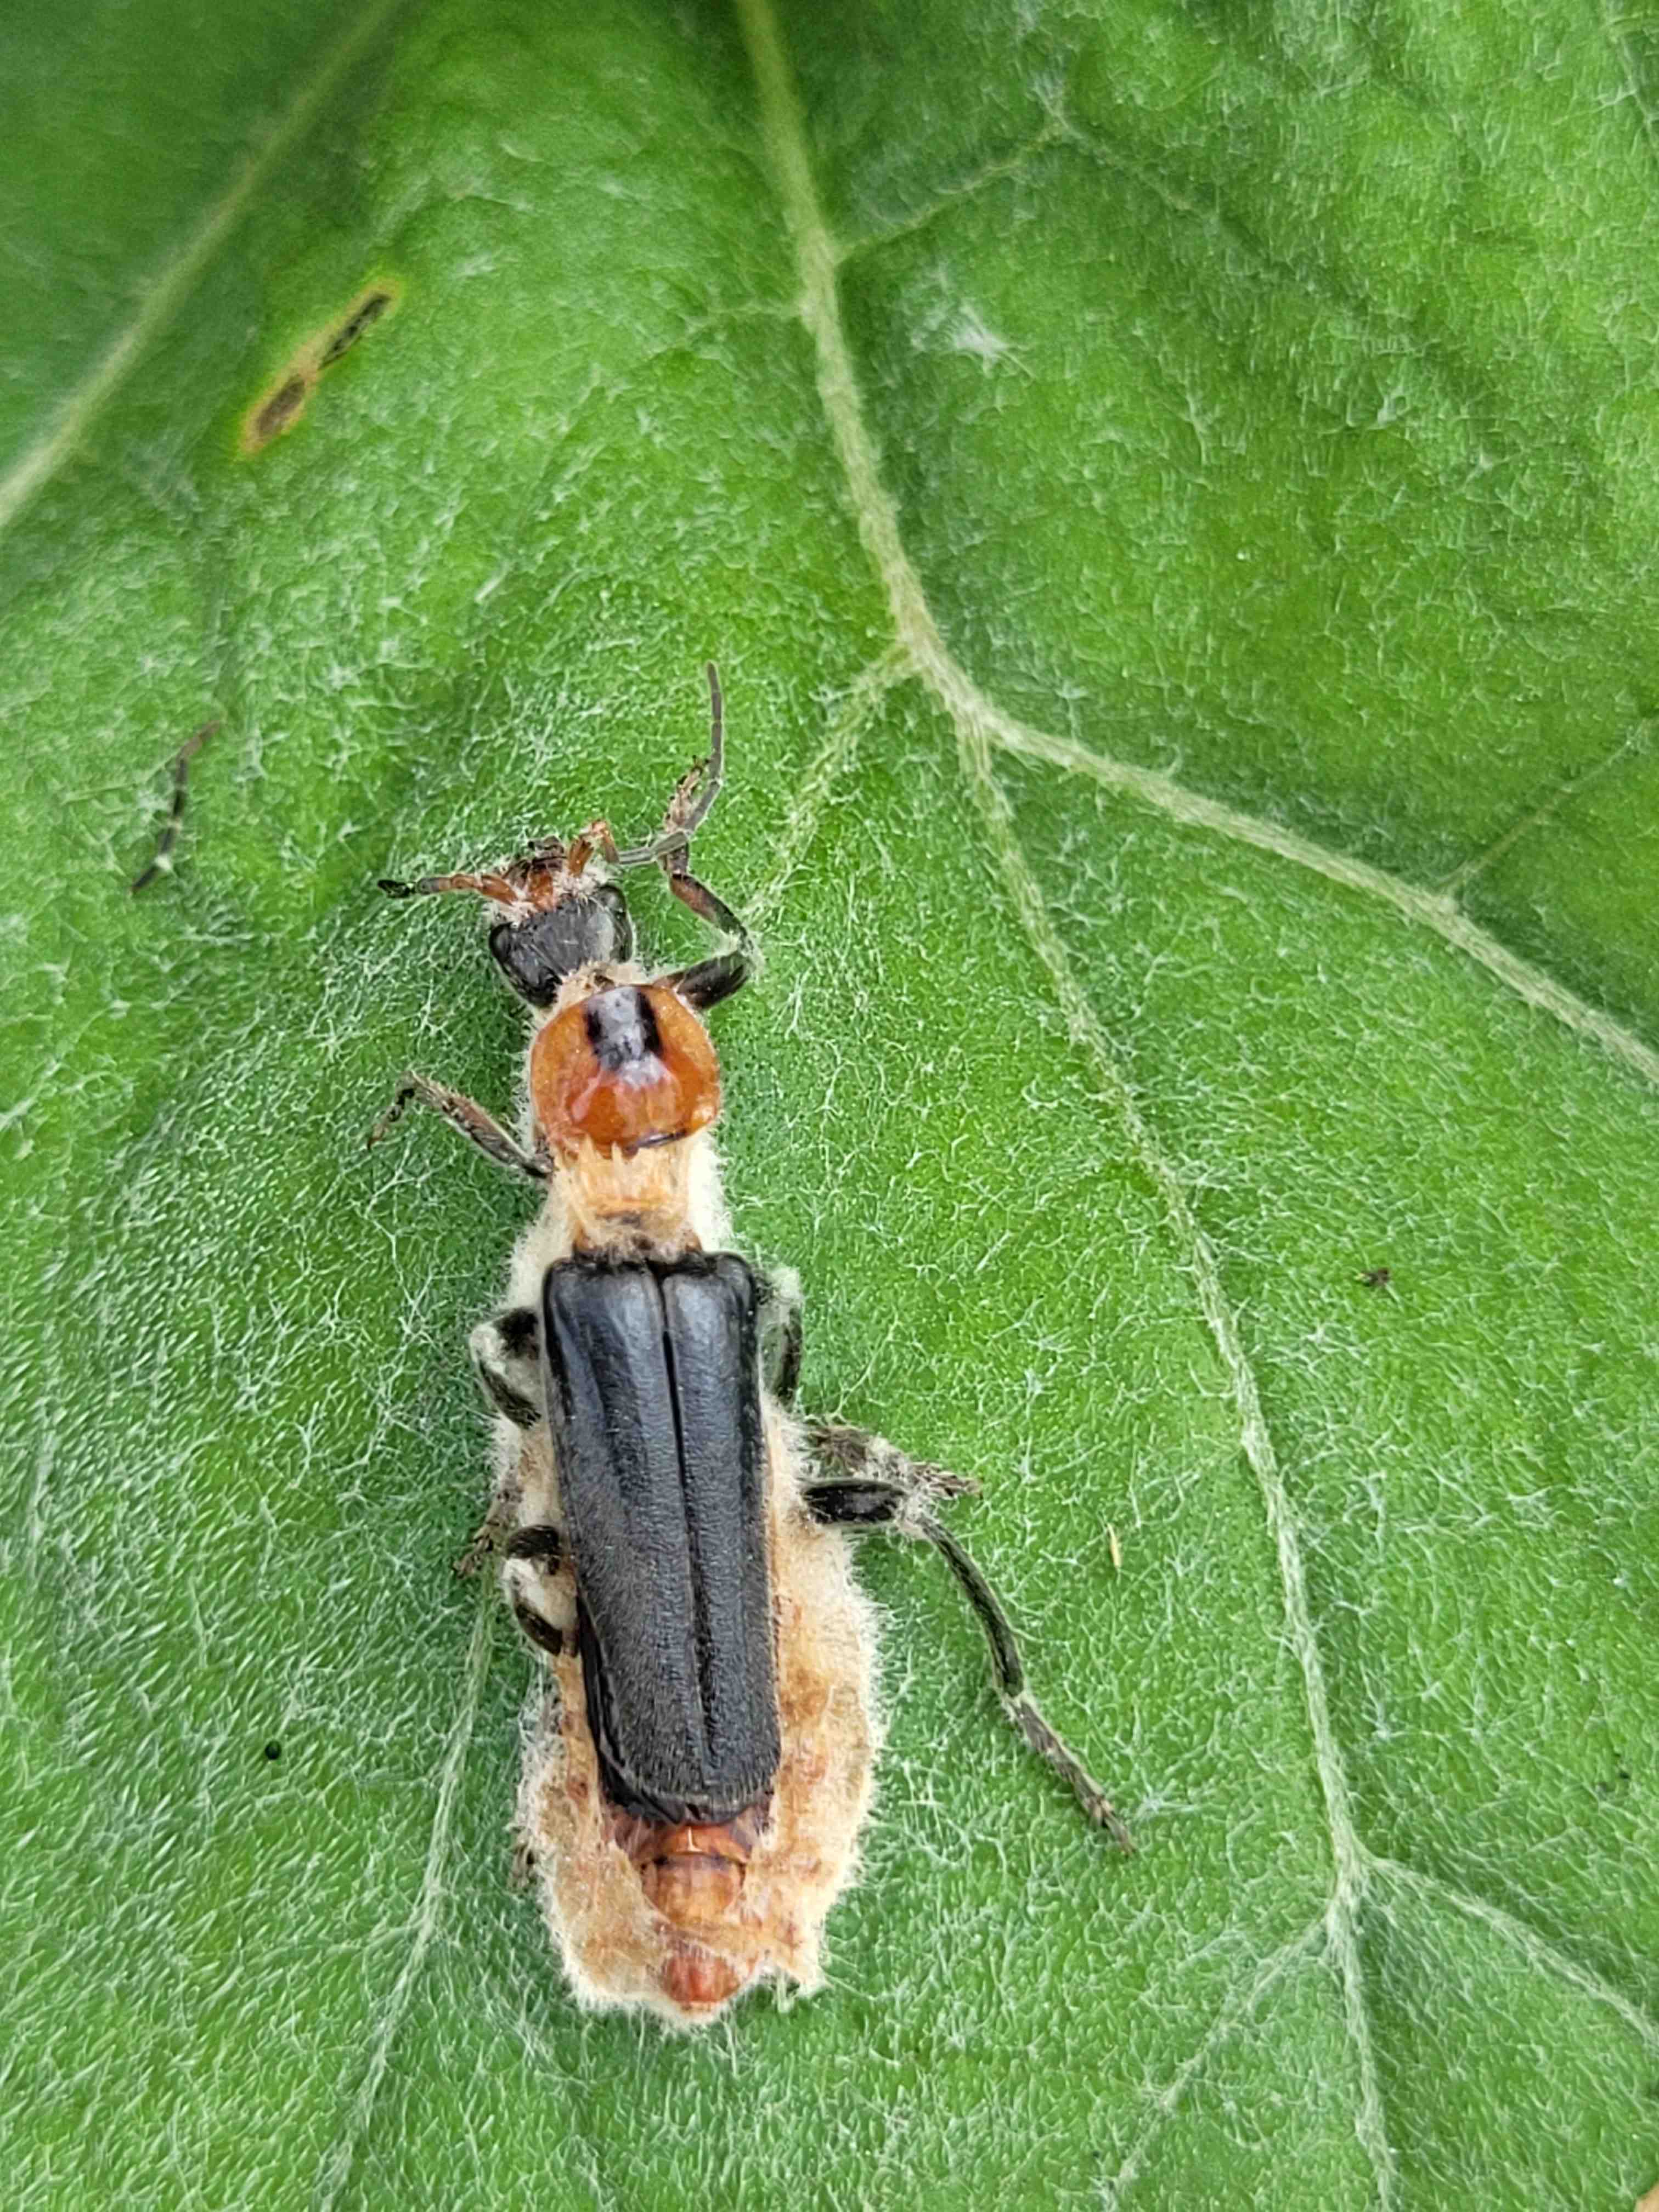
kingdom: Fungi
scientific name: Fungi
